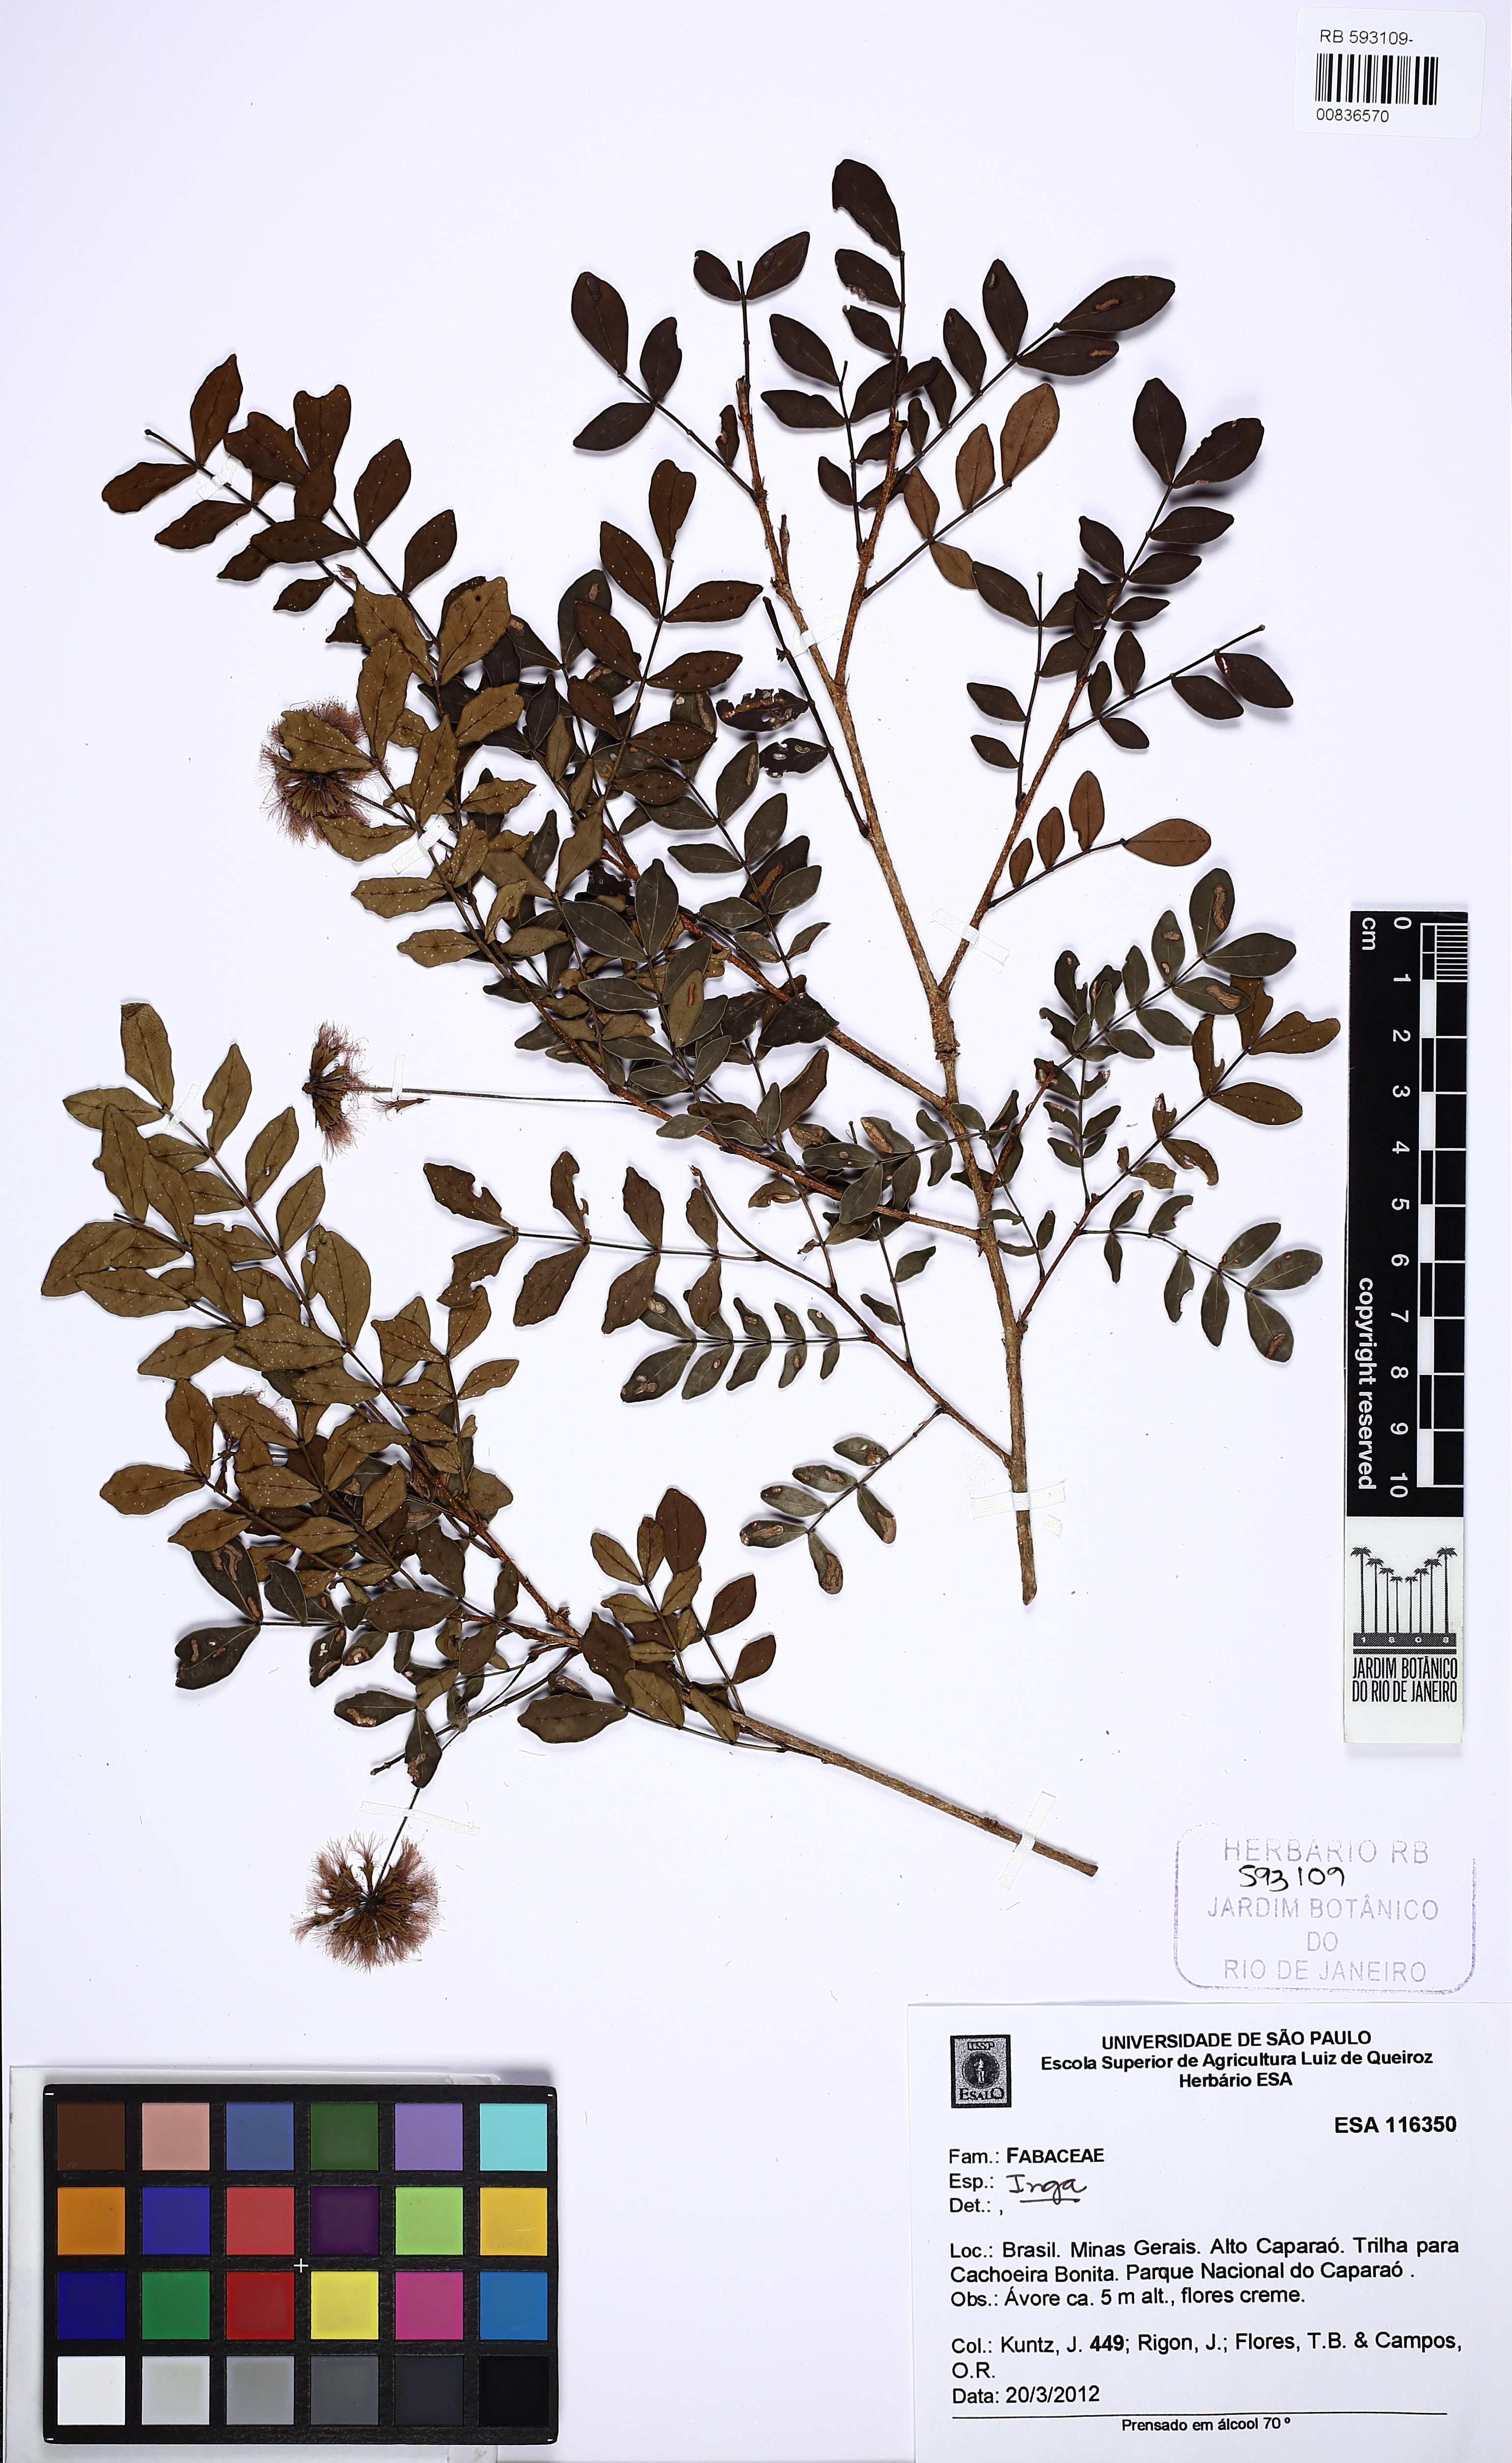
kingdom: Plantae
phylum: Tracheophyta
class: Magnoliopsida
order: Fabales
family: Fabaceae
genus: Inga
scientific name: Inga
